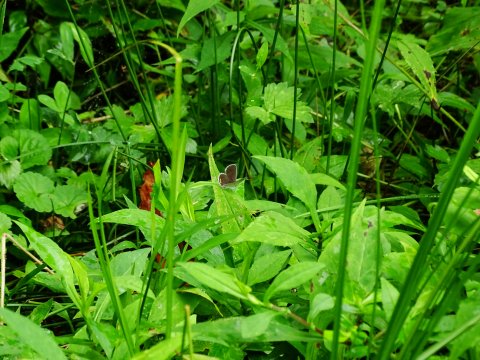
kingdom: Animalia
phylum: Arthropoda
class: Insecta
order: Lepidoptera
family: Lycaenidae
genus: Elkalyce
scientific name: Elkalyce comyntas
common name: Eastern Tailed-Blue
